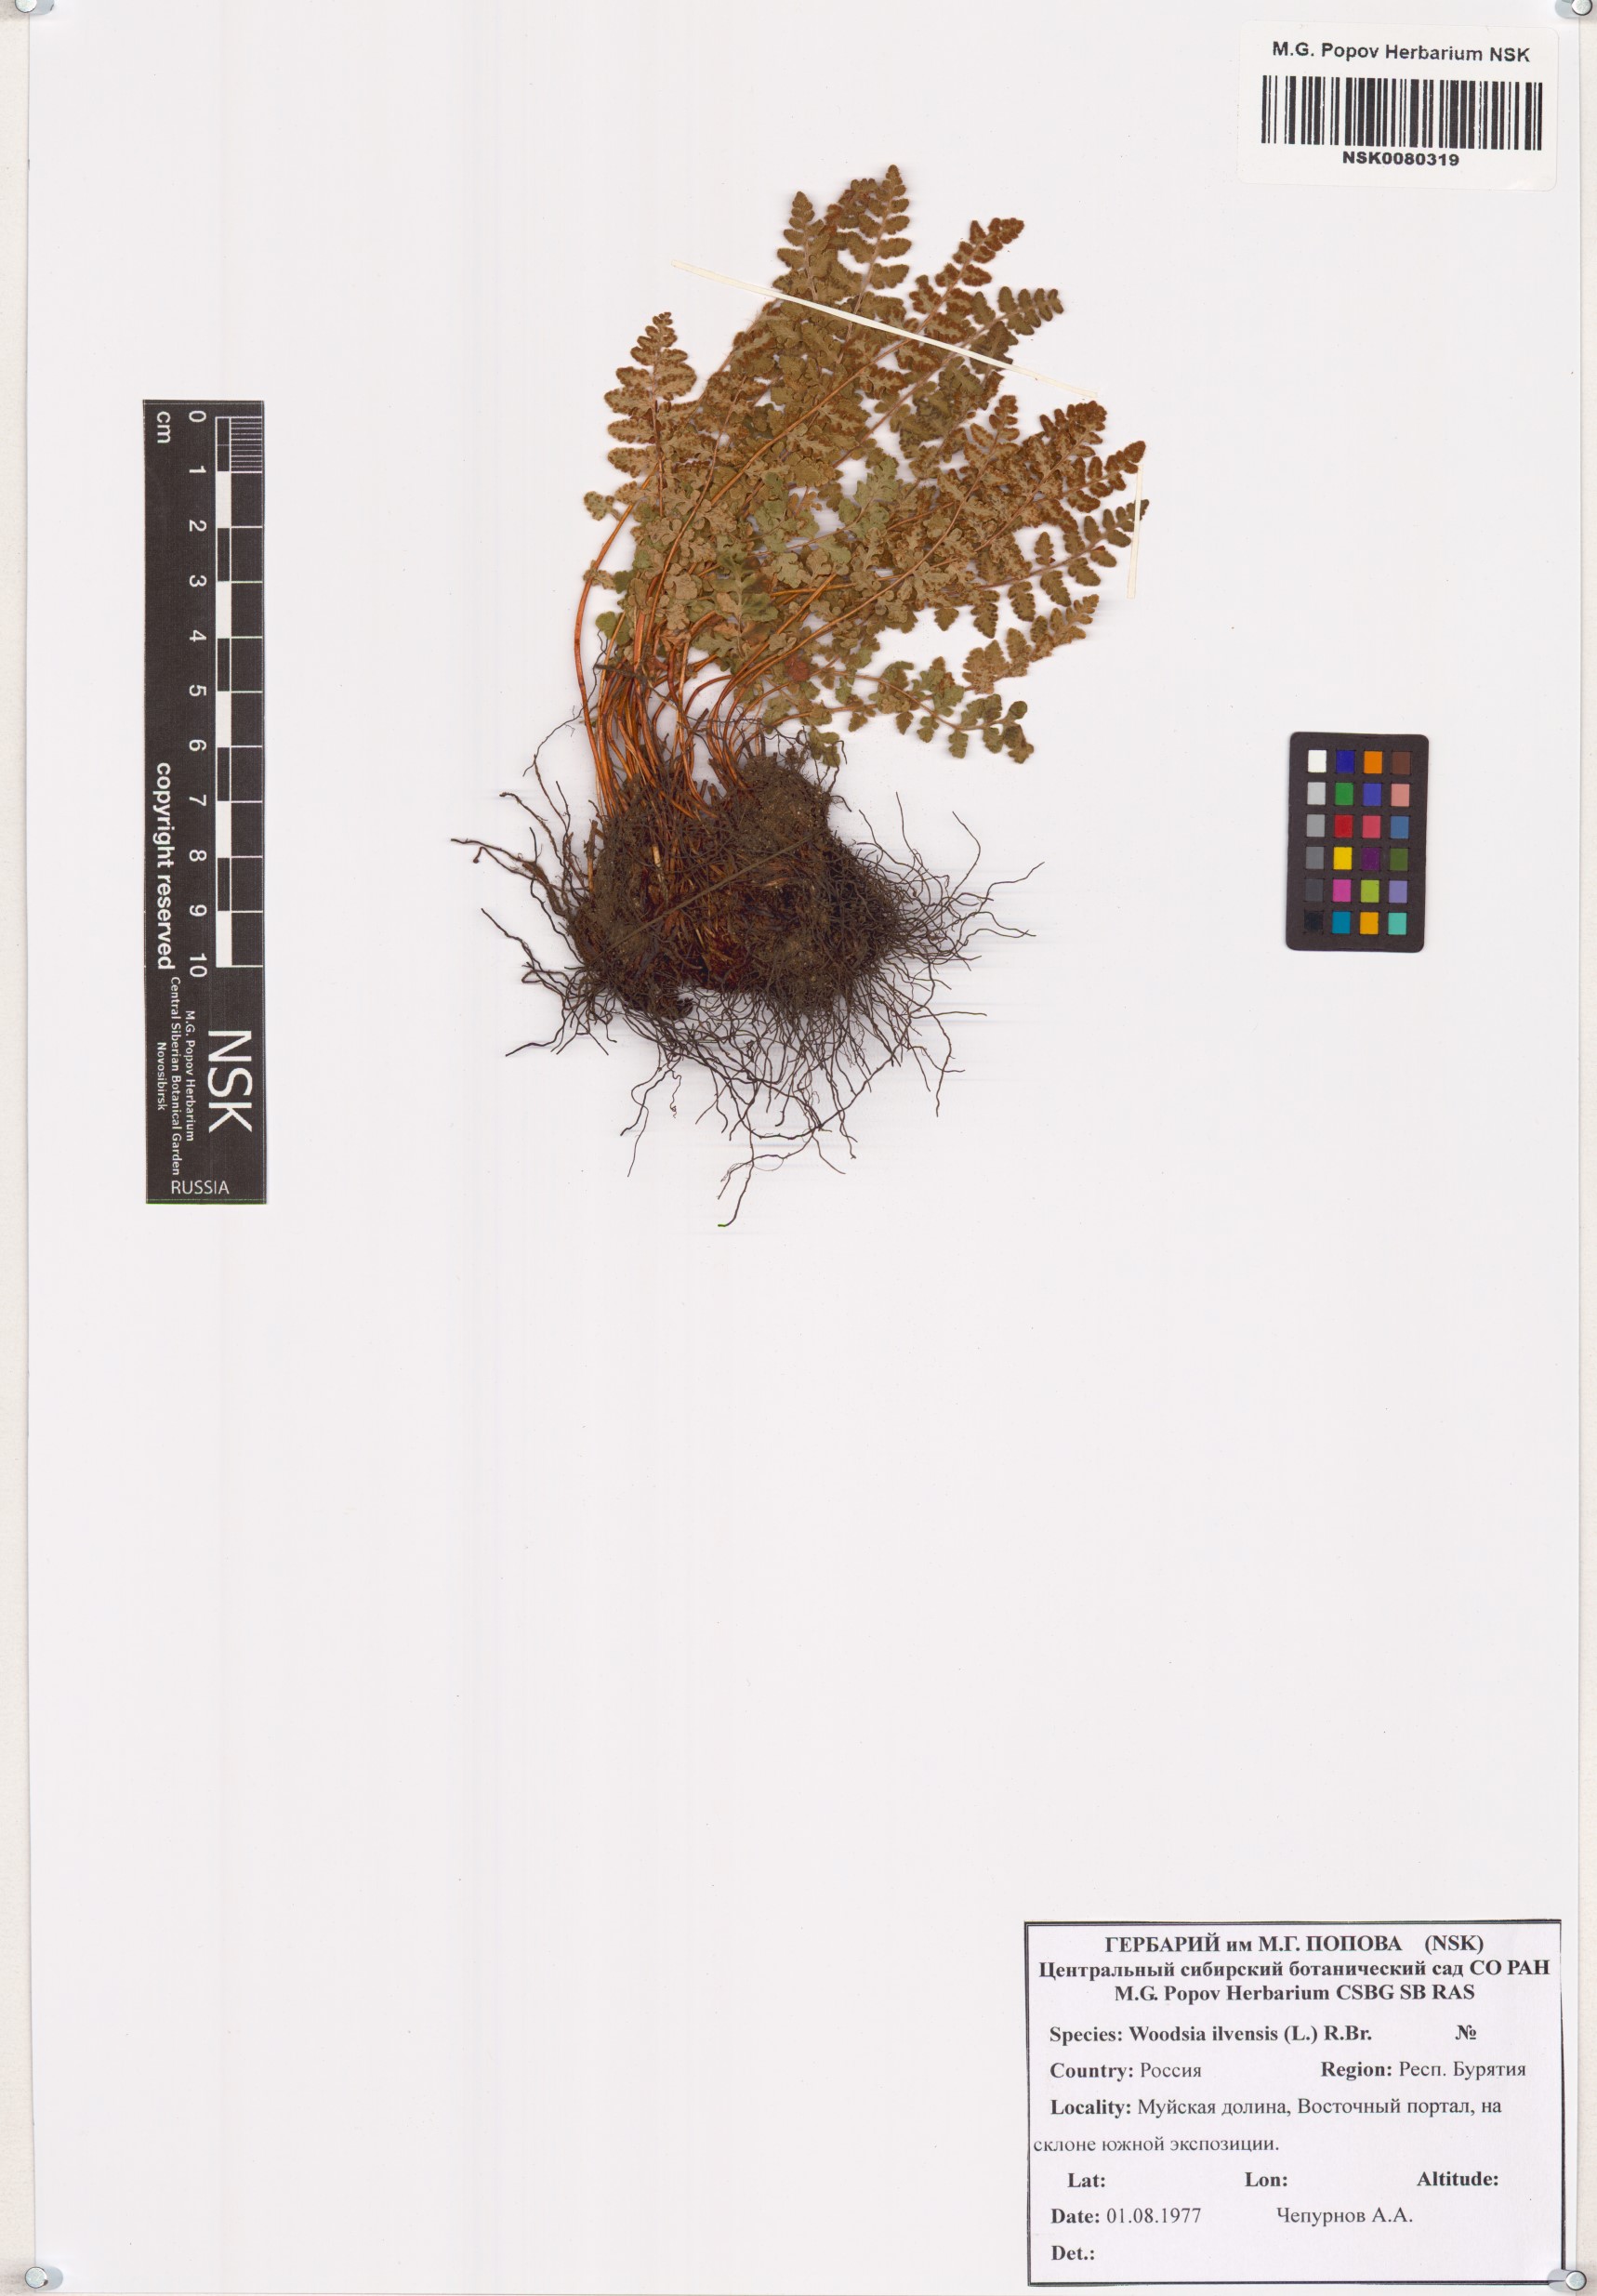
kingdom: Plantae
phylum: Tracheophyta
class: Polypodiopsida
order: Polypodiales
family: Woodsiaceae
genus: Woodsia
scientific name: Woodsia ilvensis
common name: Fragrant woodsia
